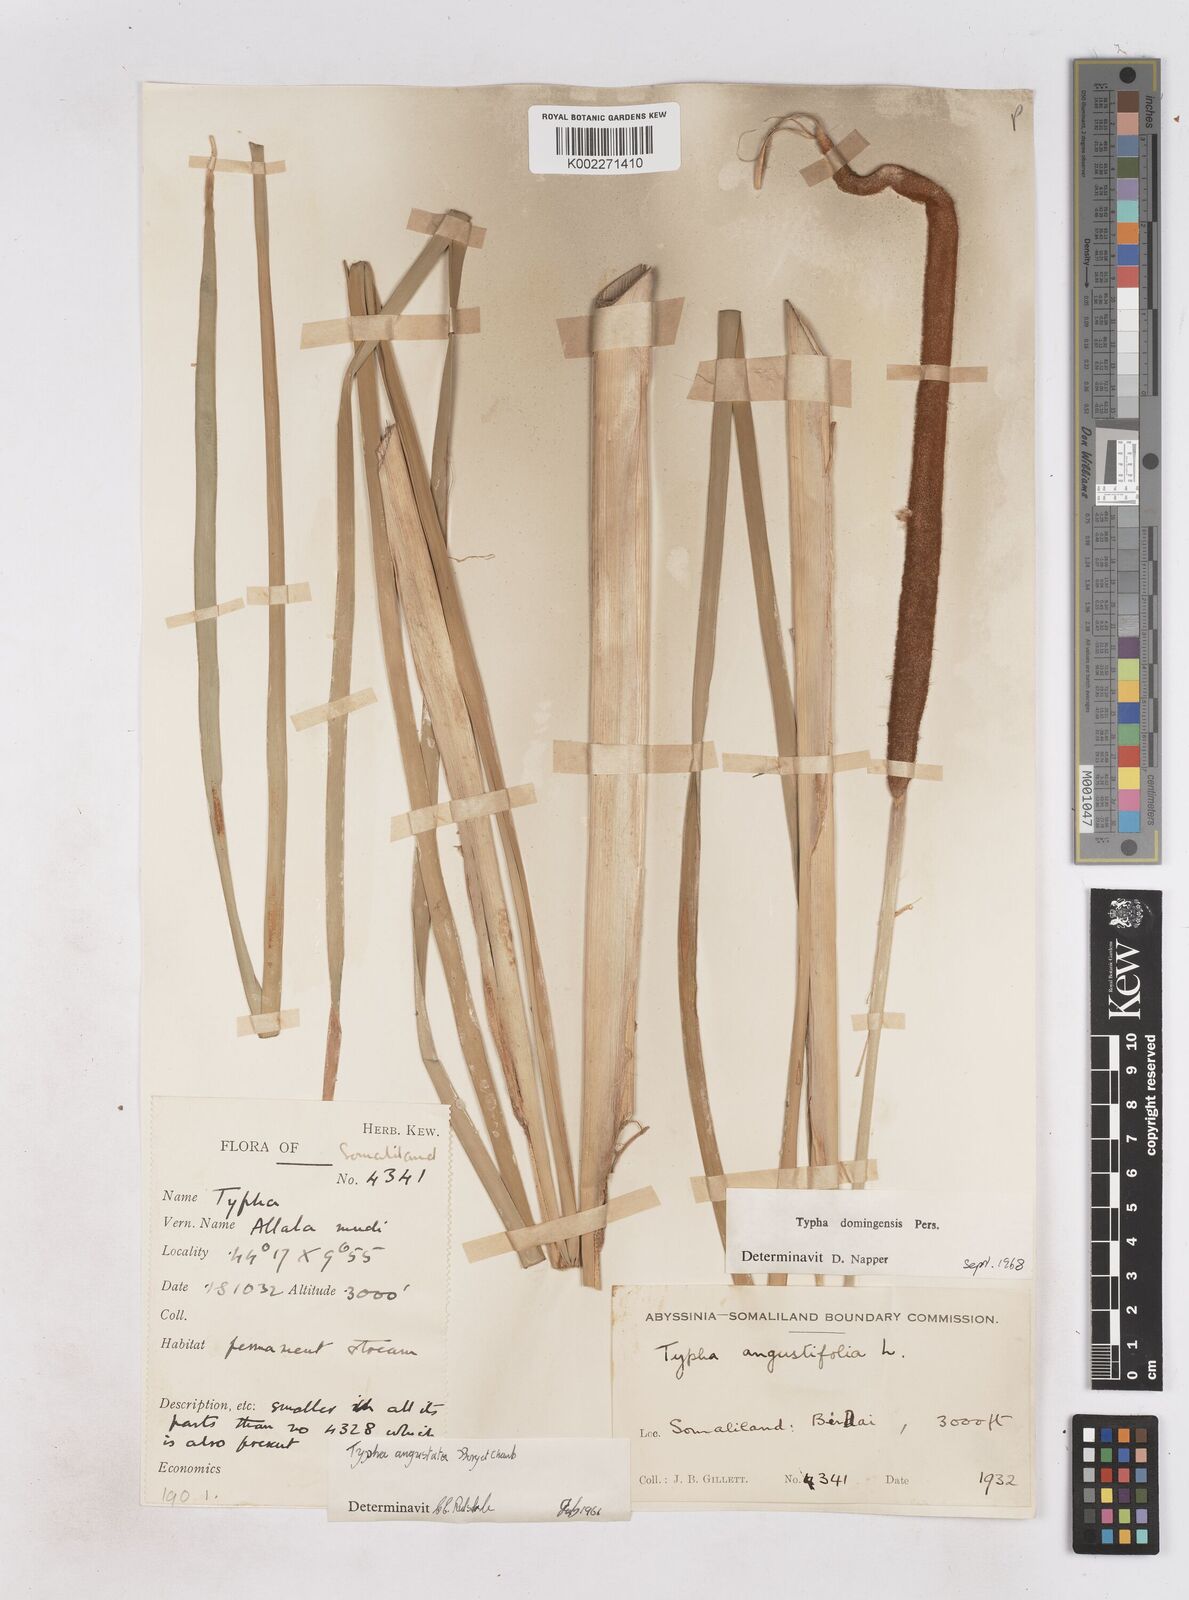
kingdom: Plantae
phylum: Tracheophyta
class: Liliopsida
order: Poales
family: Typhaceae
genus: Typha
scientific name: Typha domingensis
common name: Southern cattail
